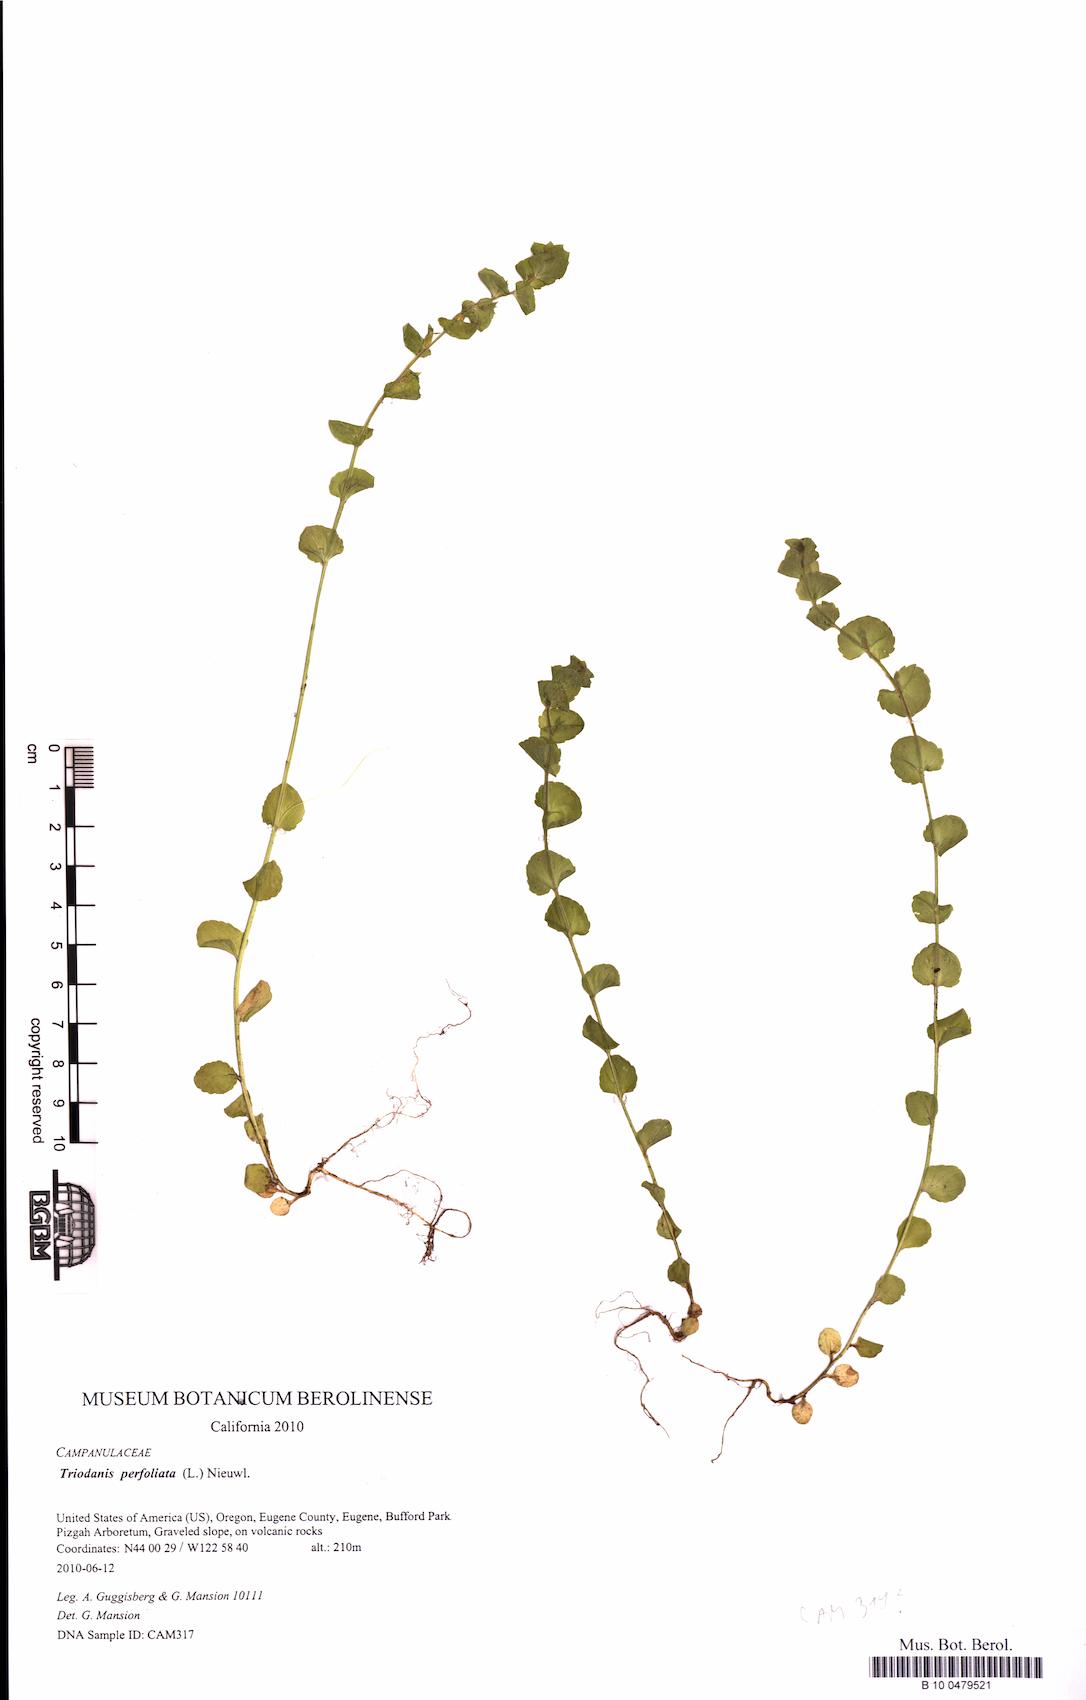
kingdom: Plantae
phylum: Tracheophyta
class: Magnoliopsida
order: Asterales
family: Campanulaceae
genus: Triodanis
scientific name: Triodanis perfoliata
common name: Clasping venus' looking-glass
